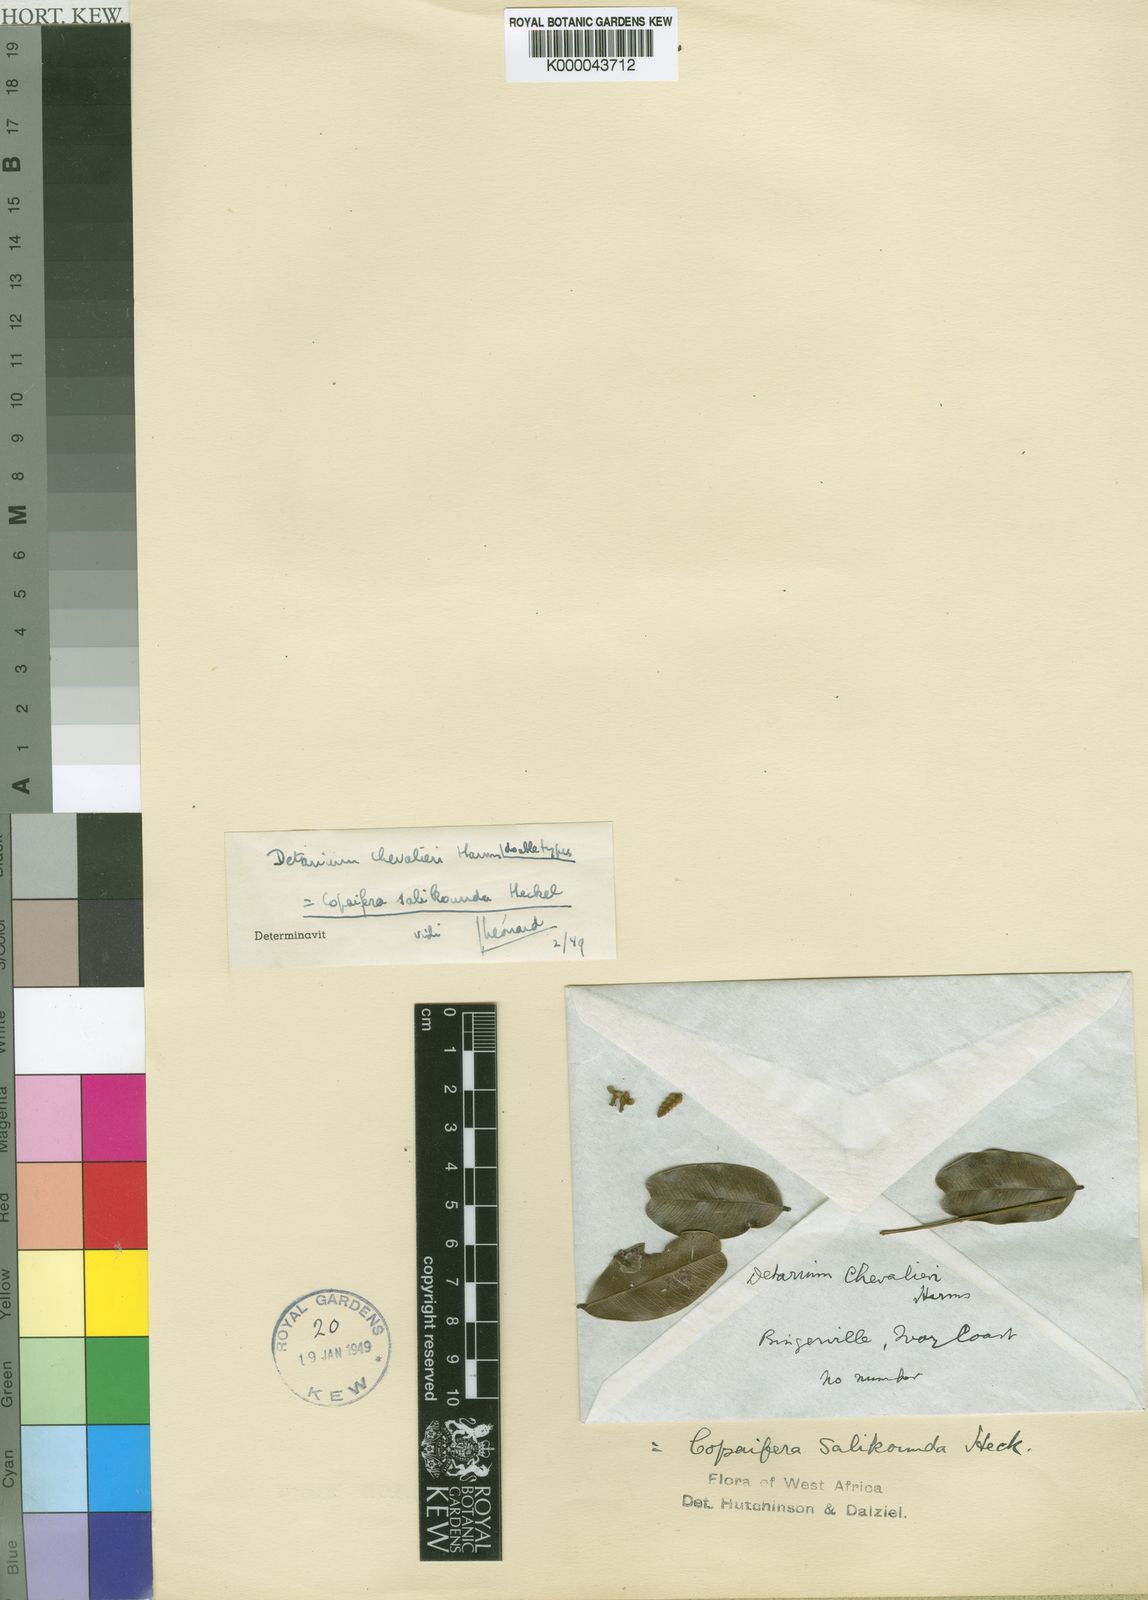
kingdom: Plantae
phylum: Tracheophyta
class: Magnoliopsida
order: Fabales
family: Fabaceae
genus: Copaifera
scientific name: Copaifera salikounda
